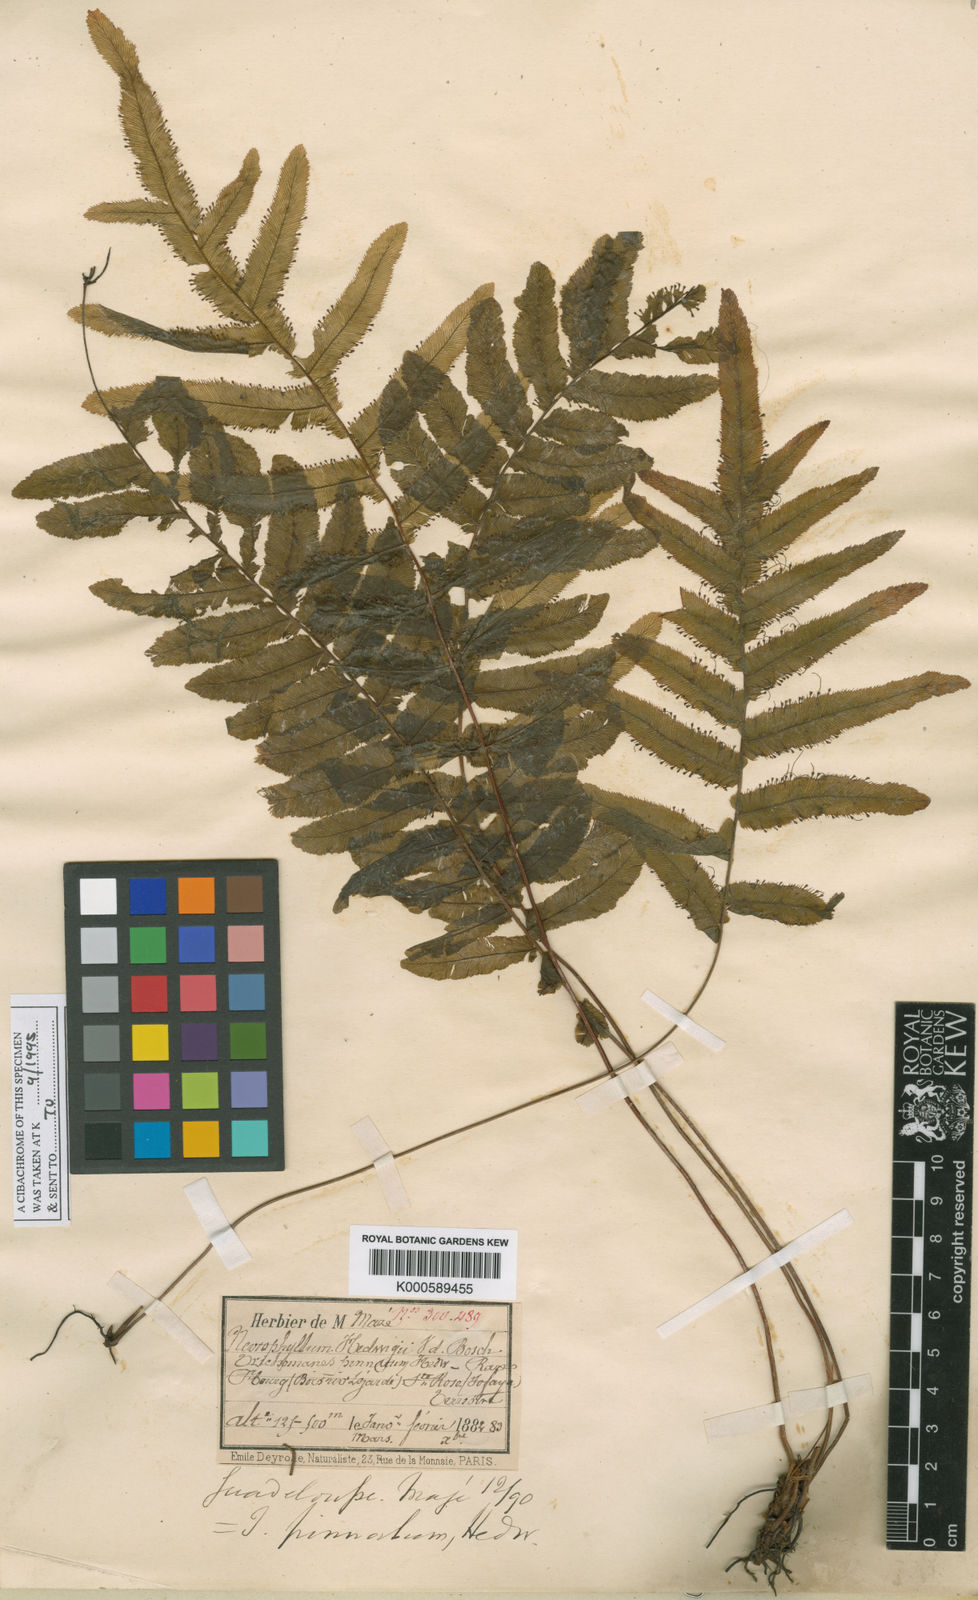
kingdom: Plantae
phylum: Tracheophyta
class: Polypodiopsida
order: Hymenophyllales
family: Hymenophyllaceae
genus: Trichomanes
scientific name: Trichomanes pinnatum
